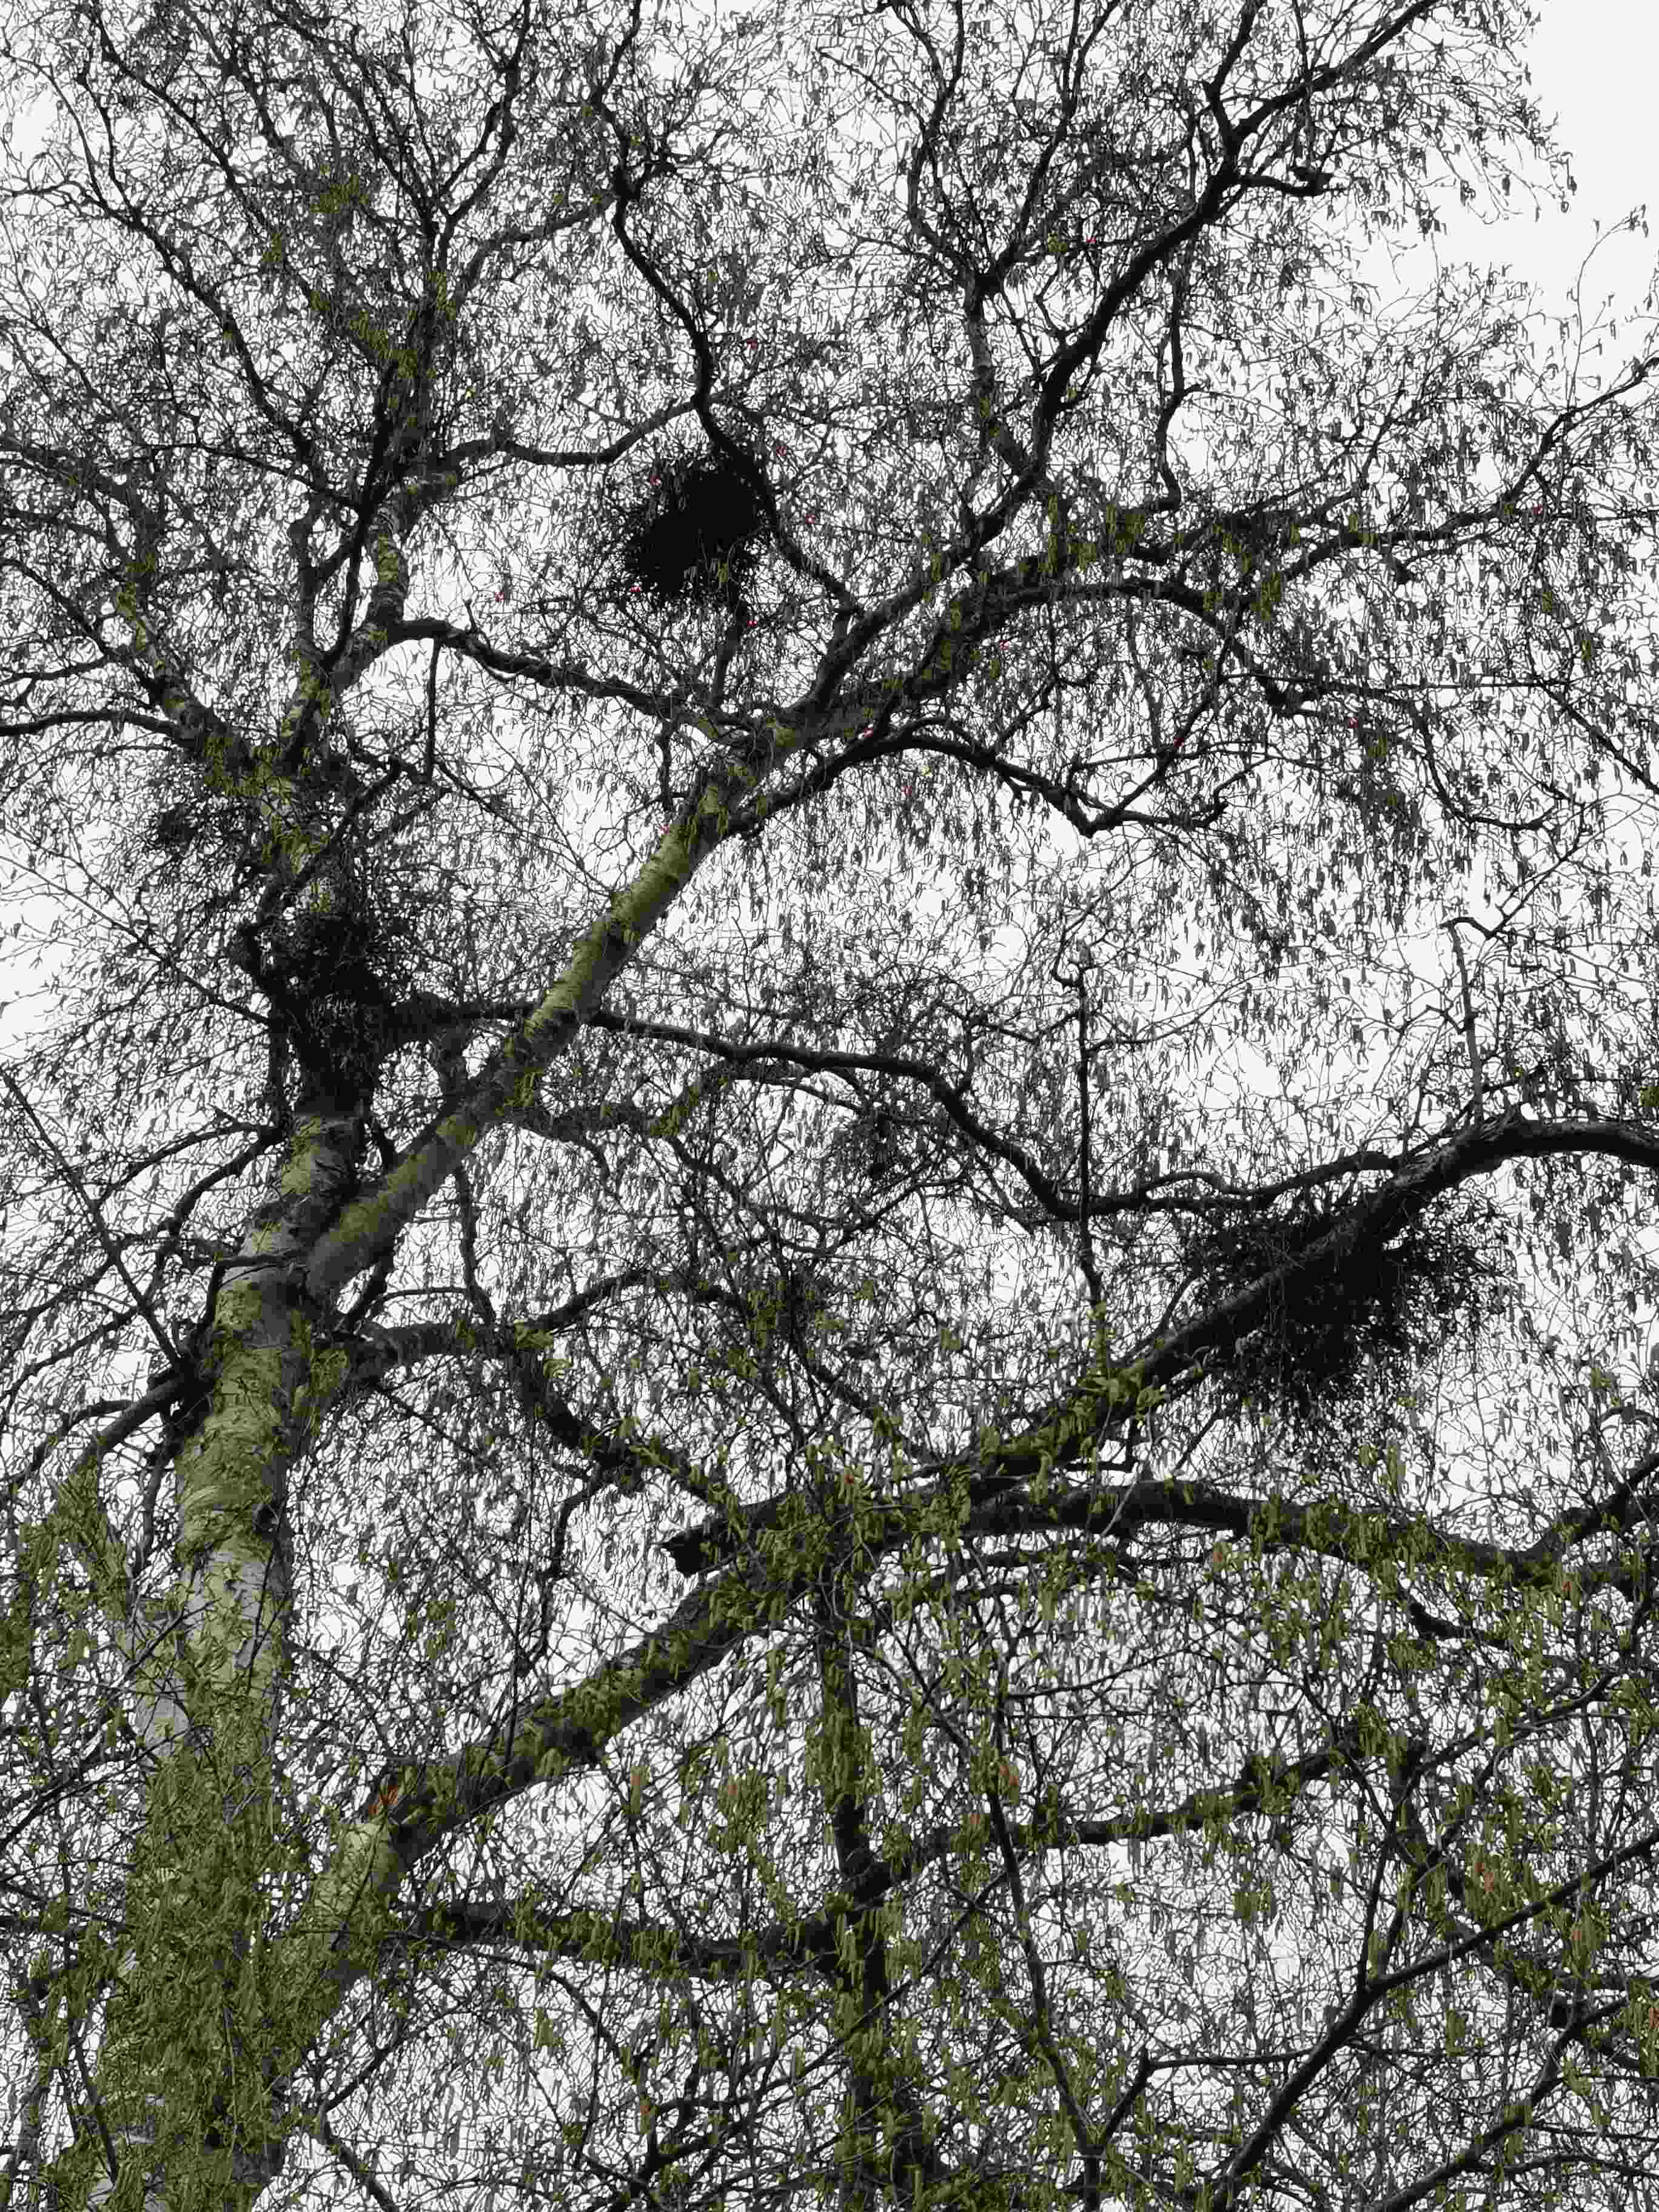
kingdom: Fungi
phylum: Ascomycota
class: Taphrinomycetes
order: Taphrinales
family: Taphrinaceae
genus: Taphrina
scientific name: Taphrina betulina
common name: hekse-sækdug
